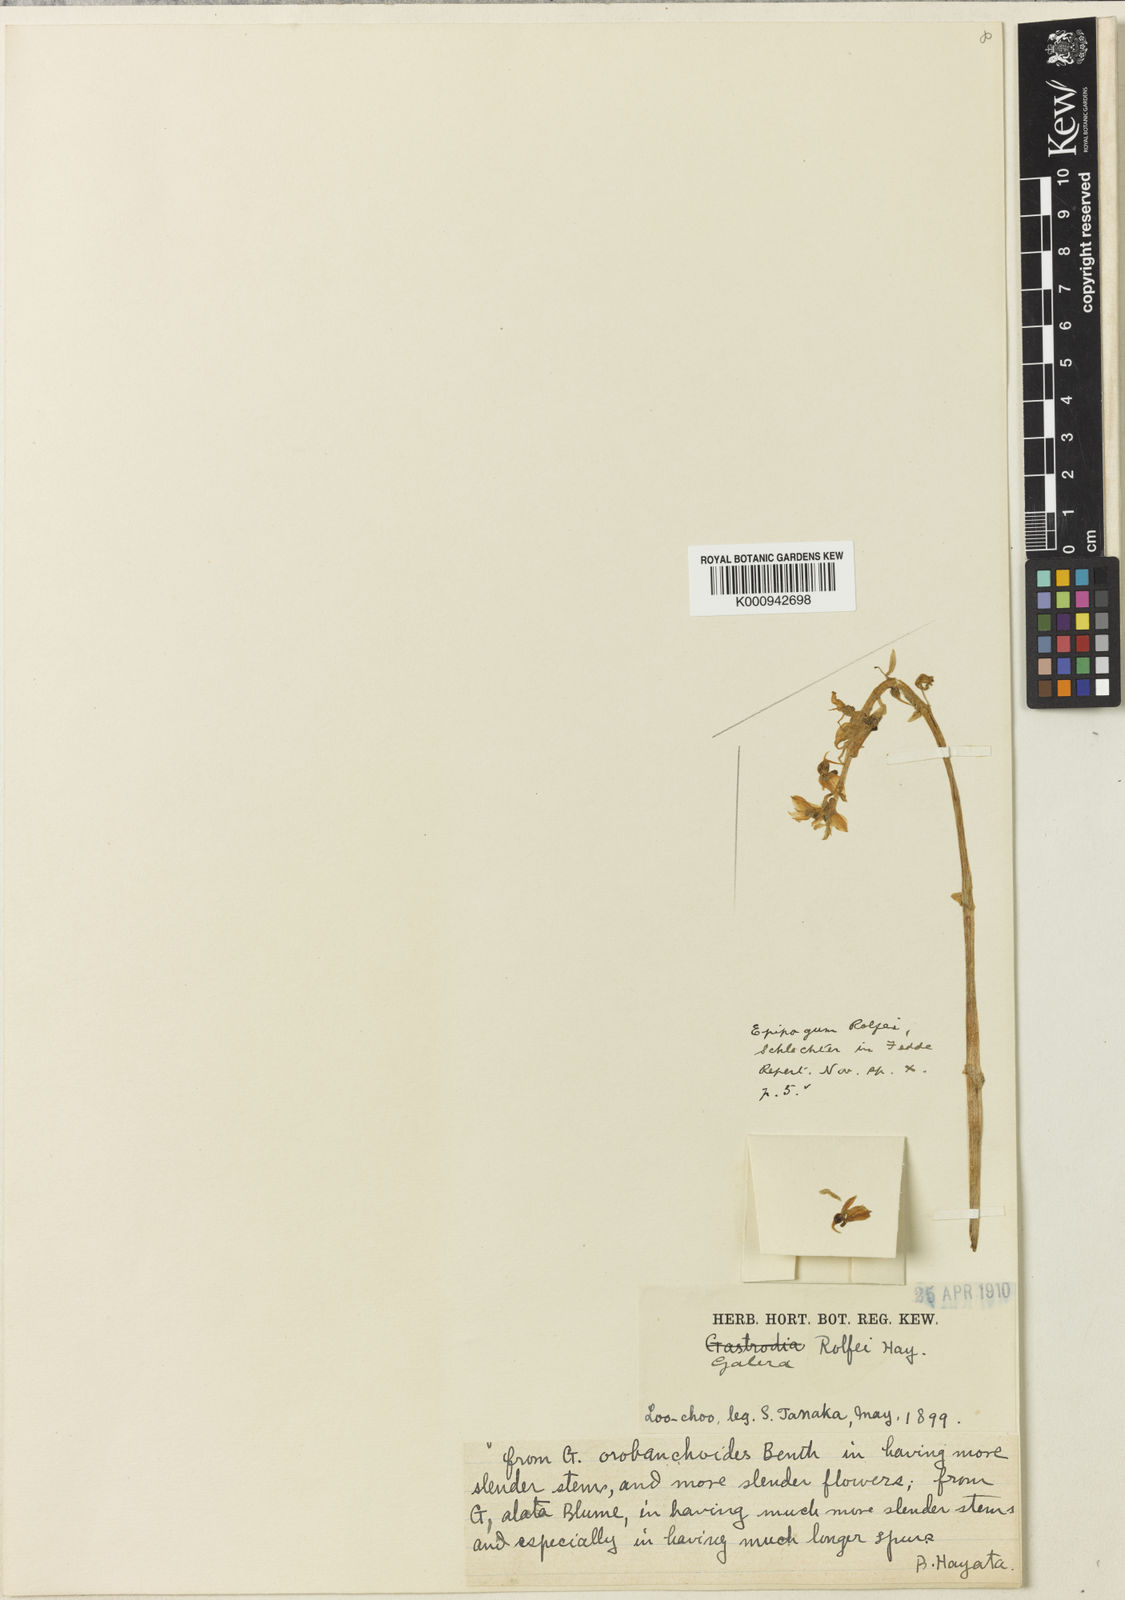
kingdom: Plantae
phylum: Tracheophyta
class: Liliopsida
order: Asparagales
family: Orchidaceae
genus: Epipogium
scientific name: Epipogium roseum
